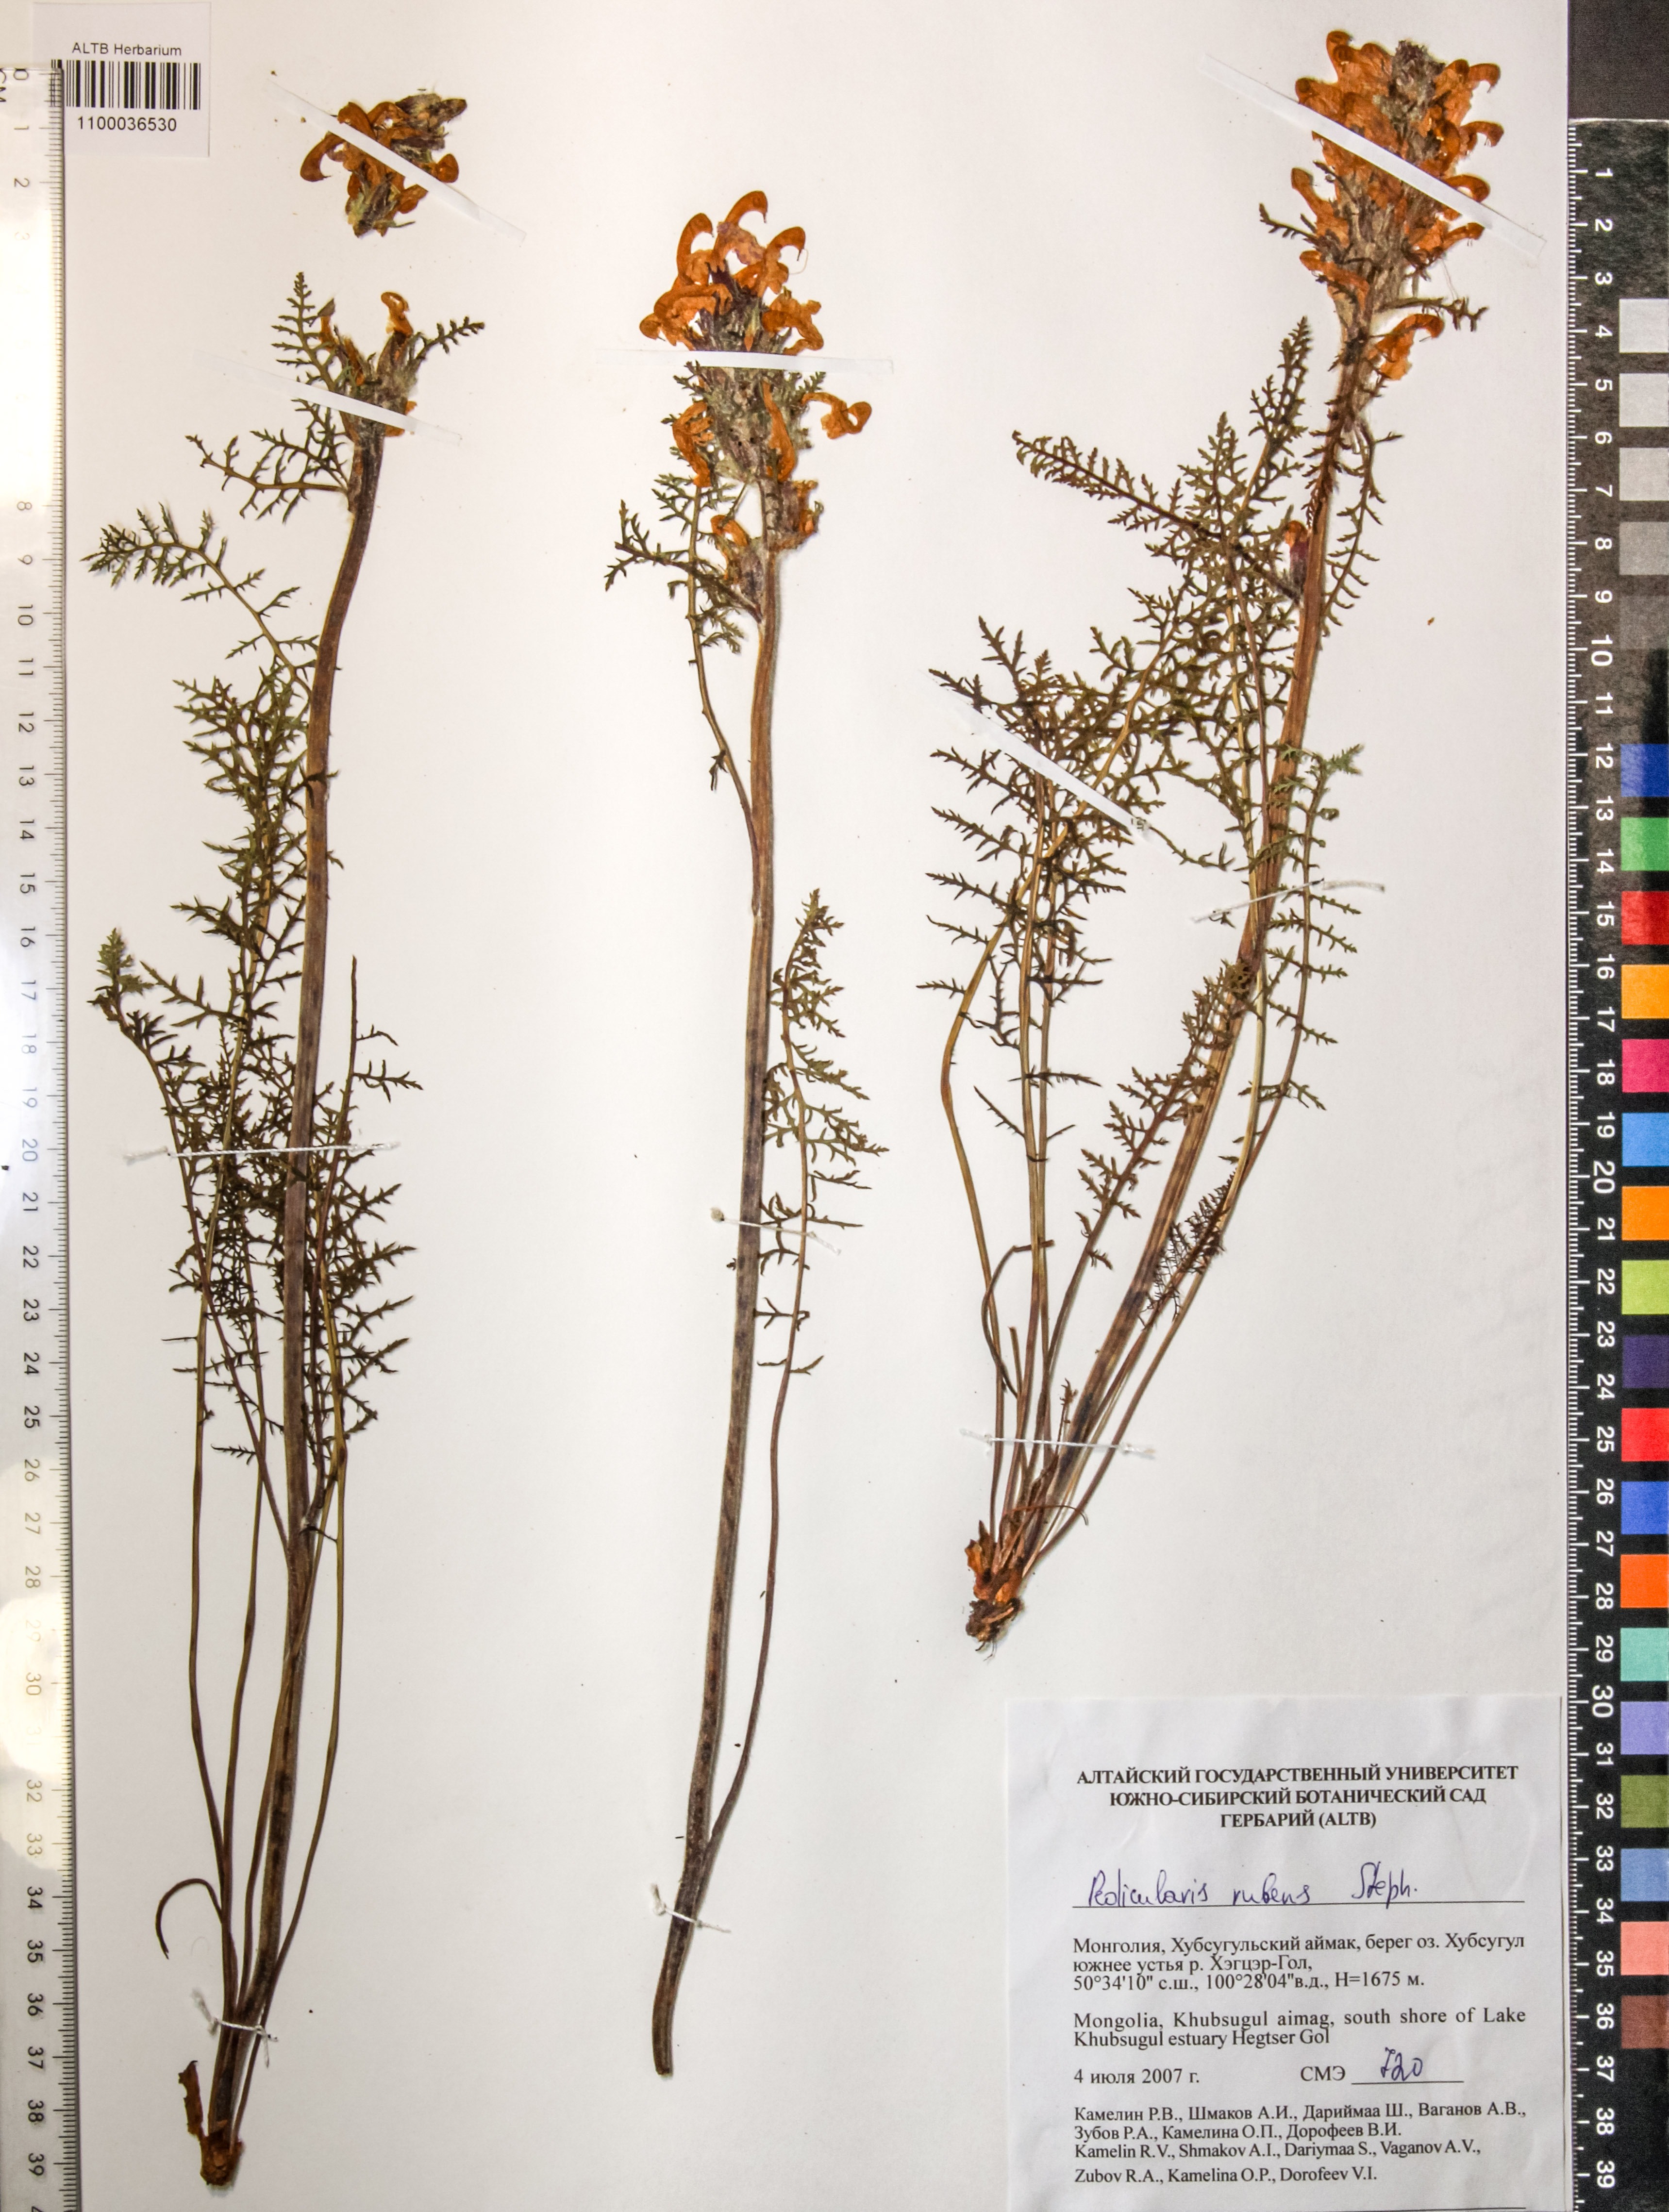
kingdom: Plantae
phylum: Tracheophyta
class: Magnoliopsida
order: Lamiales
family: Orobanchaceae
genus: Pedicularis
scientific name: Pedicularis rubens
